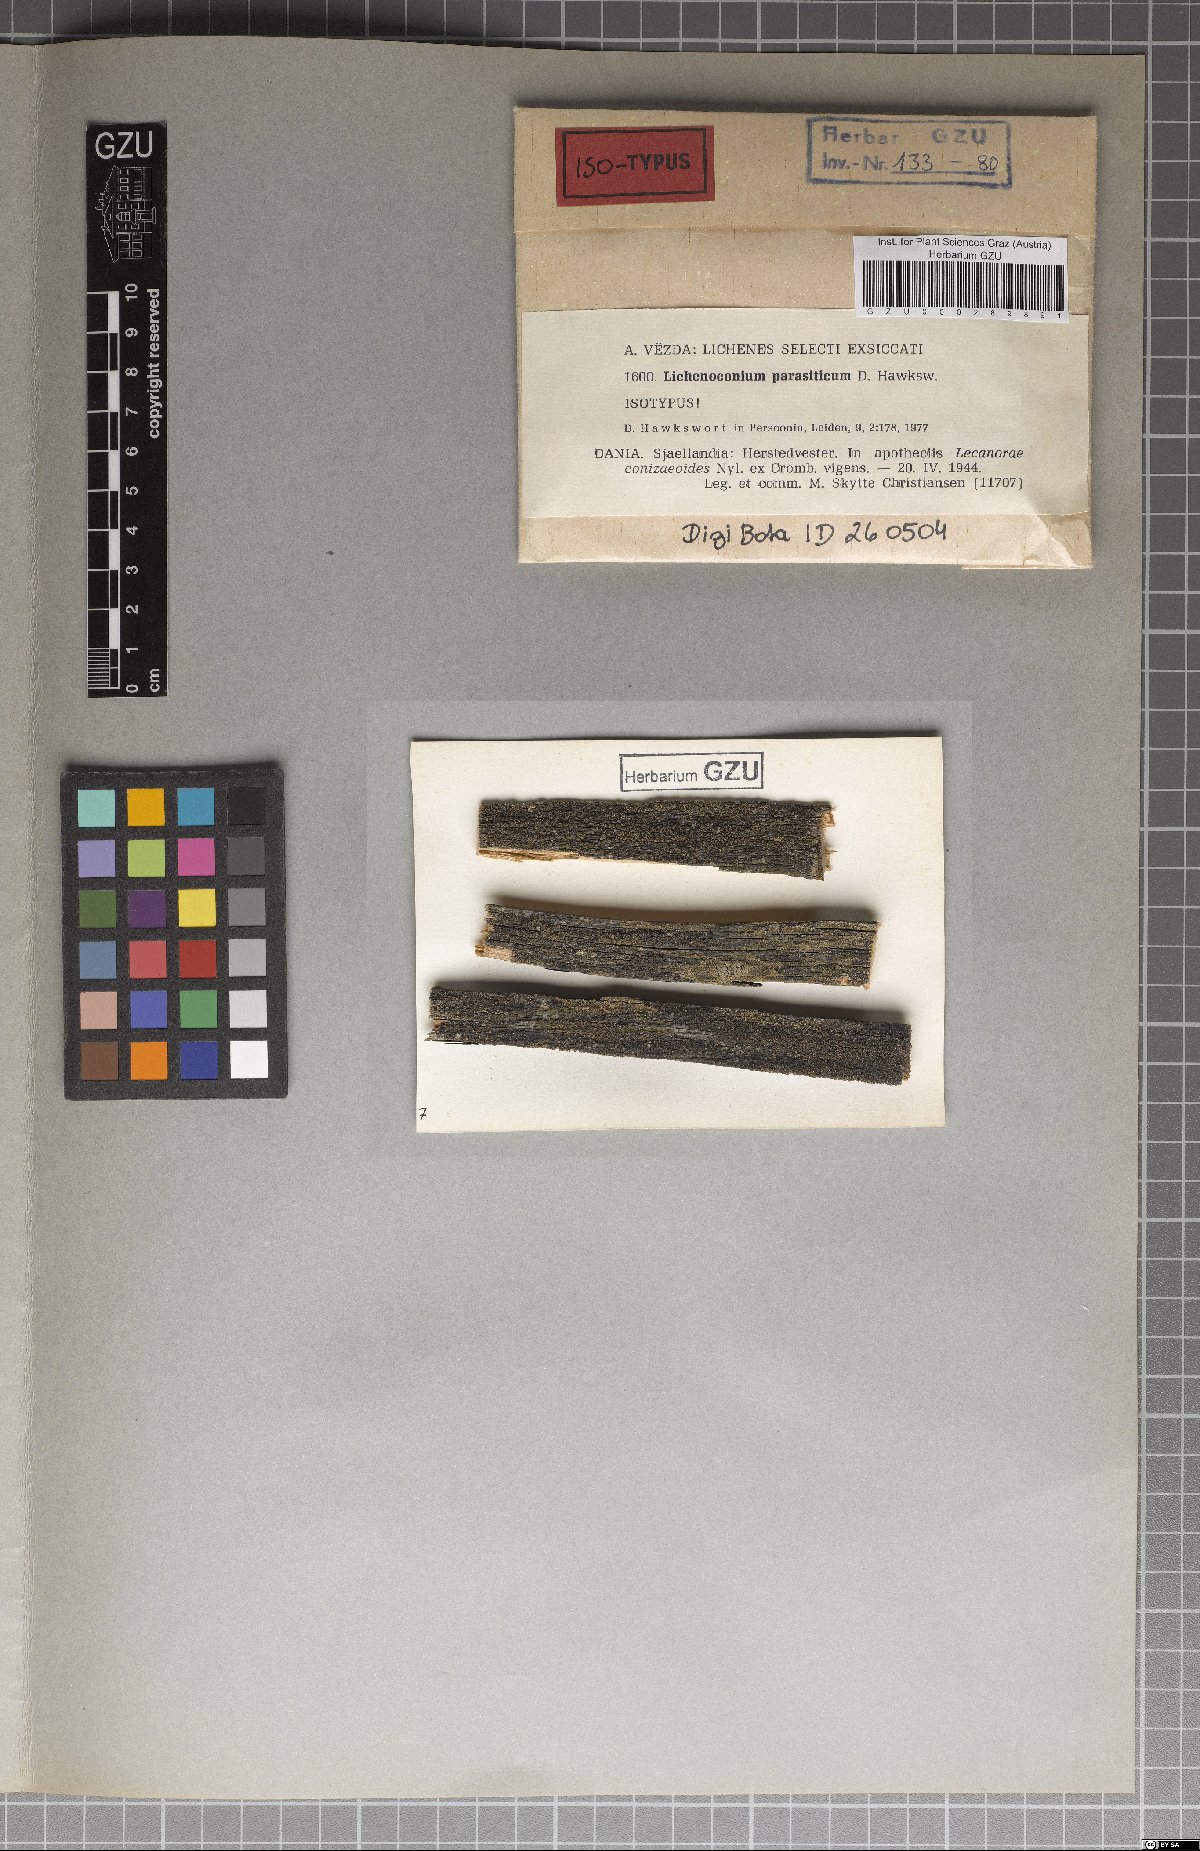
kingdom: Fungi
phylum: Ascomycota
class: Dothideomycetes
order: Lichenoconiales
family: Lichenoconiaceae
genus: Lichenoconium
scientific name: Lichenoconium parasiticum
